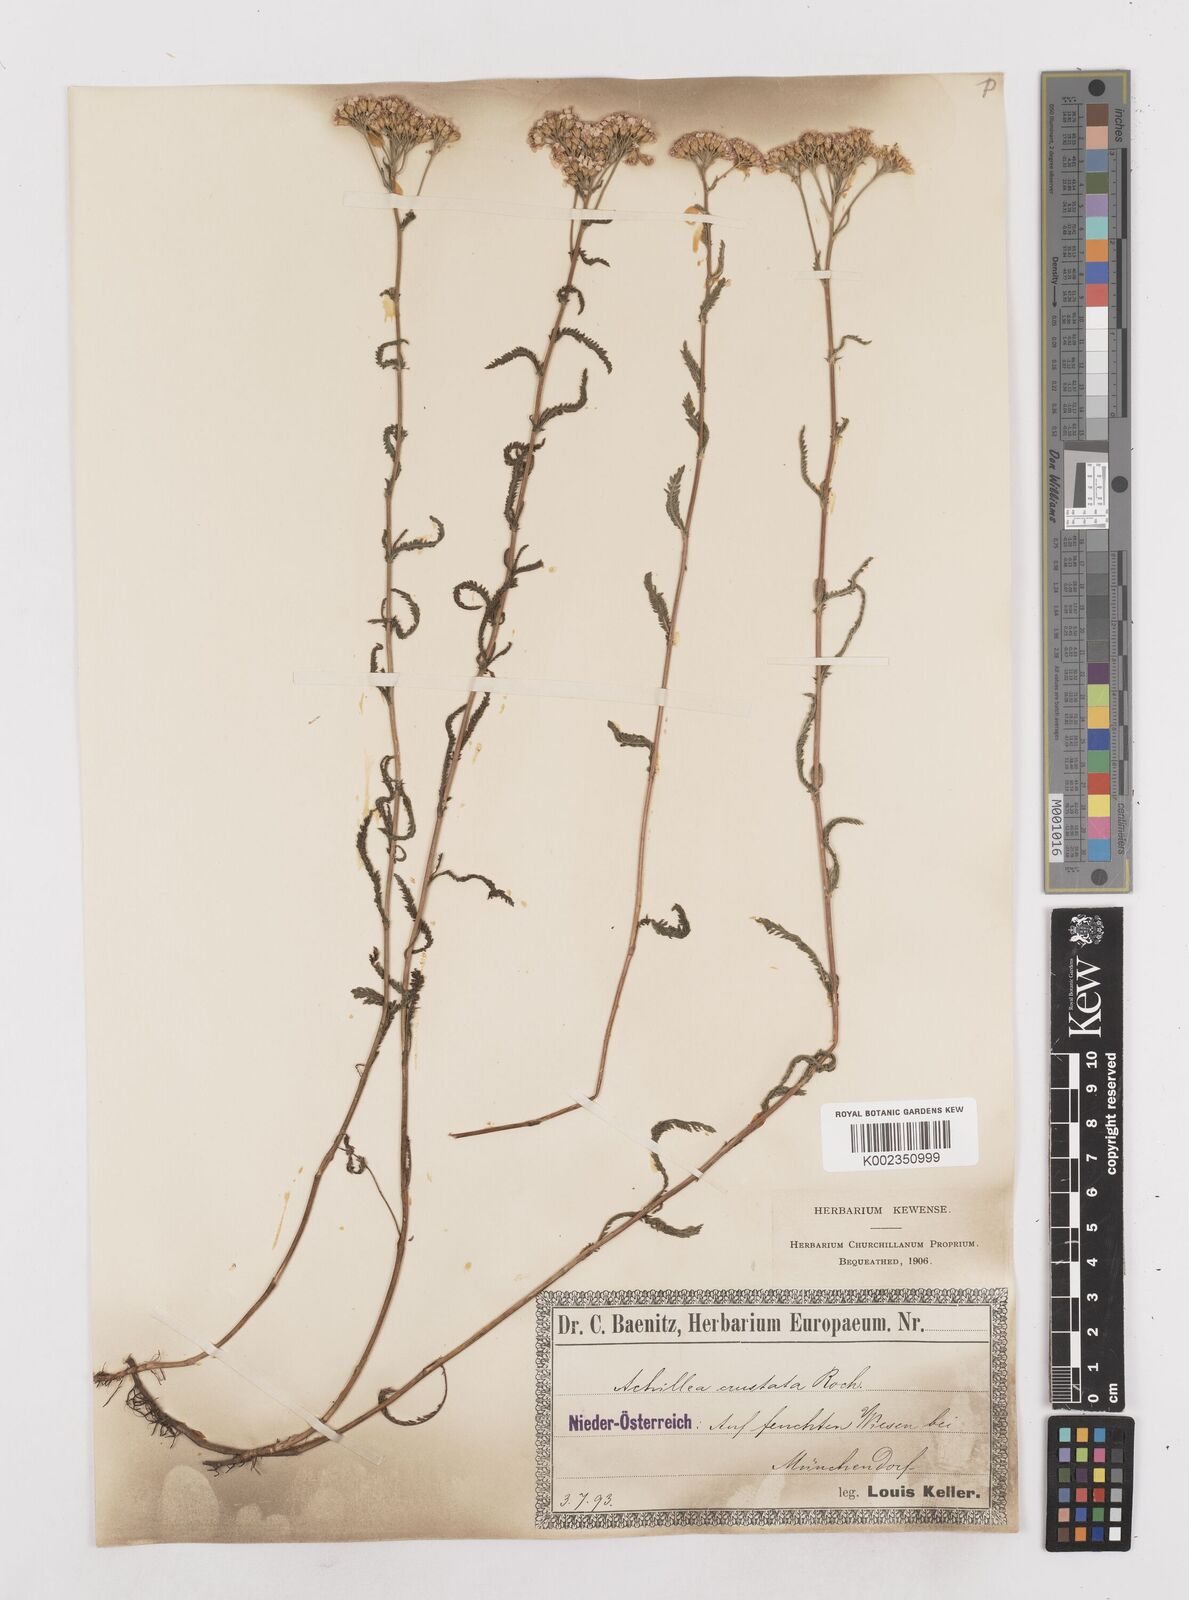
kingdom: Plantae
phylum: Tracheophyta
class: Magnoliopsida
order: Asterales
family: Asteraceae
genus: Achillea
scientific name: Achillea millefolium
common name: Yarrow
